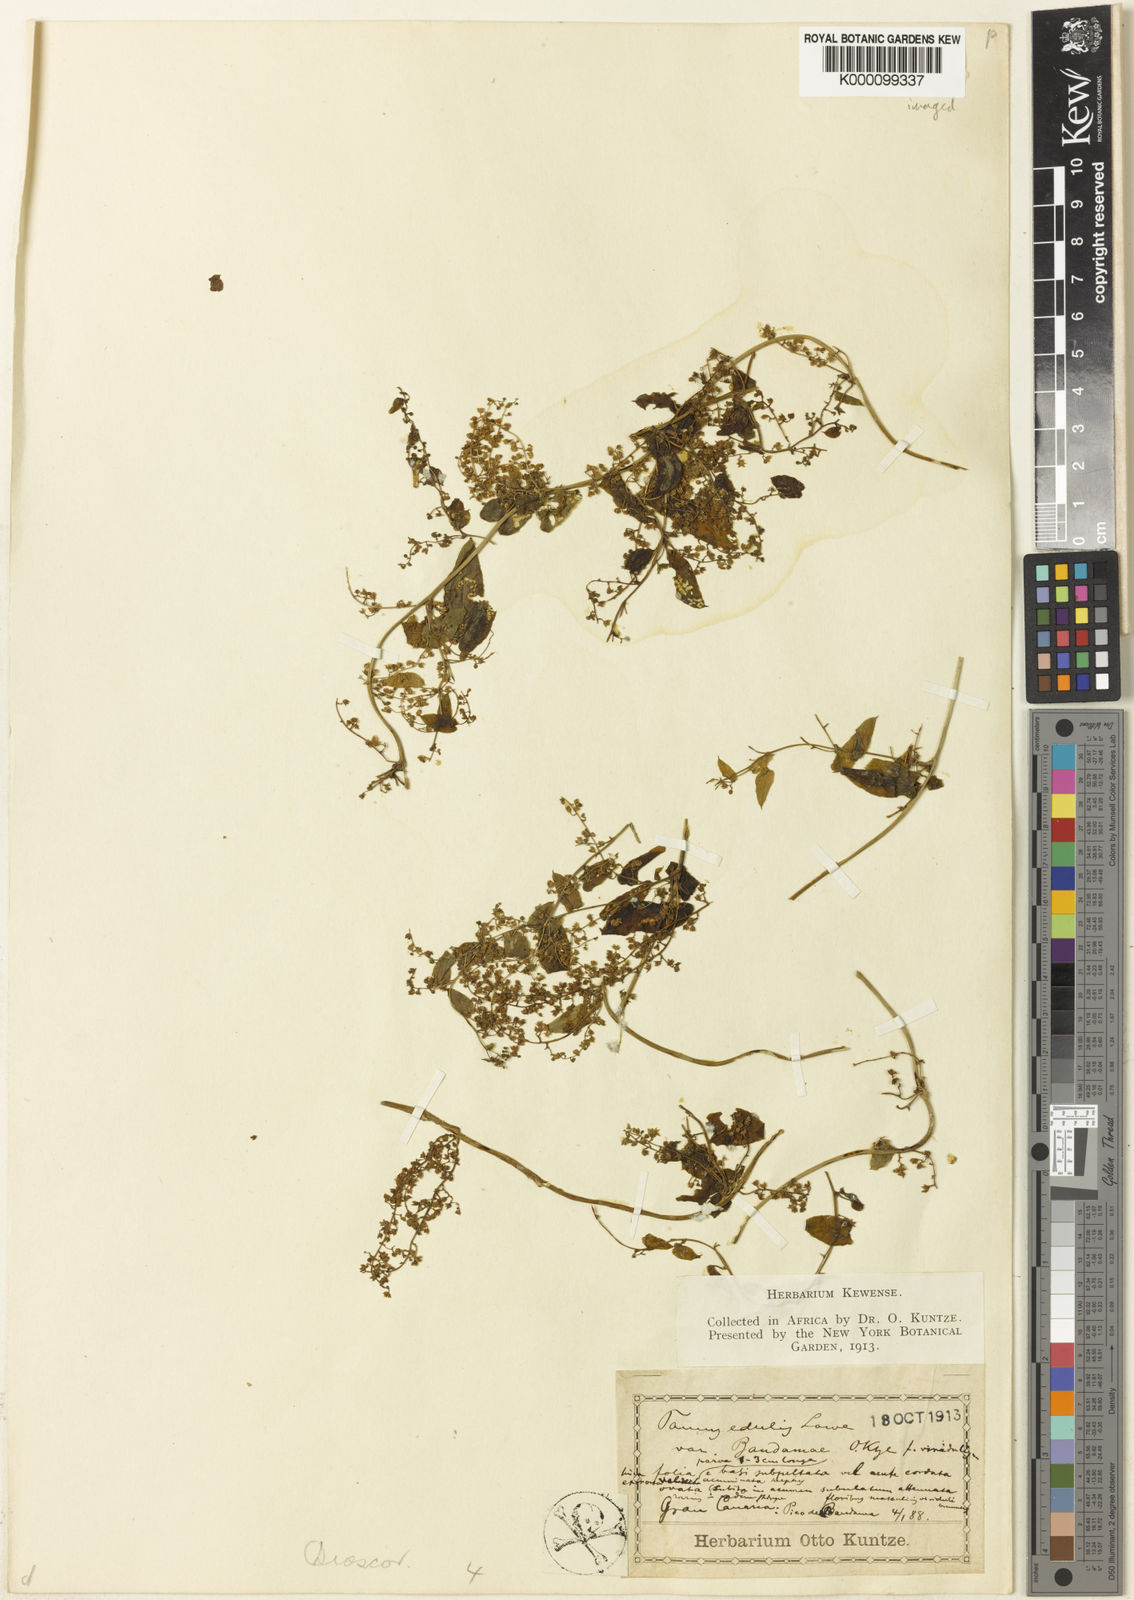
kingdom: Plantae
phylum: Tracheophyta
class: Liliopsida
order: Dioscoreales
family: Dioscoreaceae
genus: Dioscorea
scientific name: Dioscorea communis
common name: Black-bindweed
